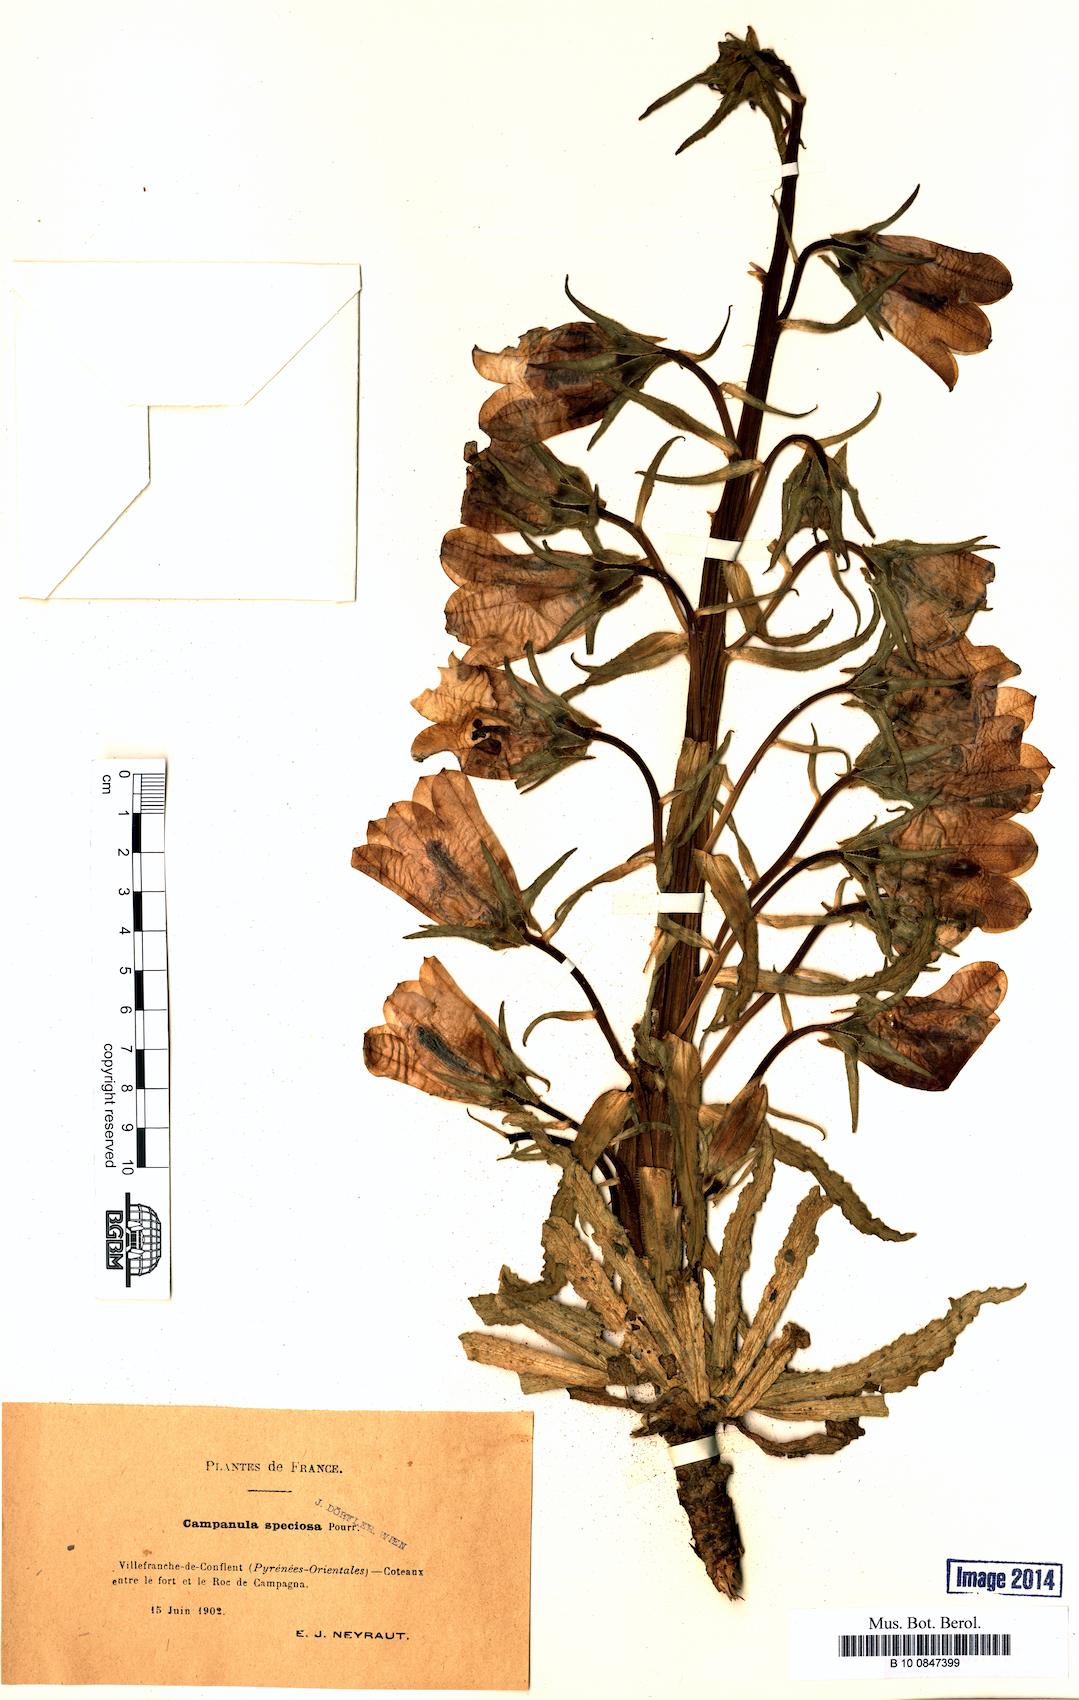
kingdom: Plantae
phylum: Tracheophyta
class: Magnoliopsida
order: Asterales
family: Campanulaceae
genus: Campanula
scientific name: Campanula speciosa
